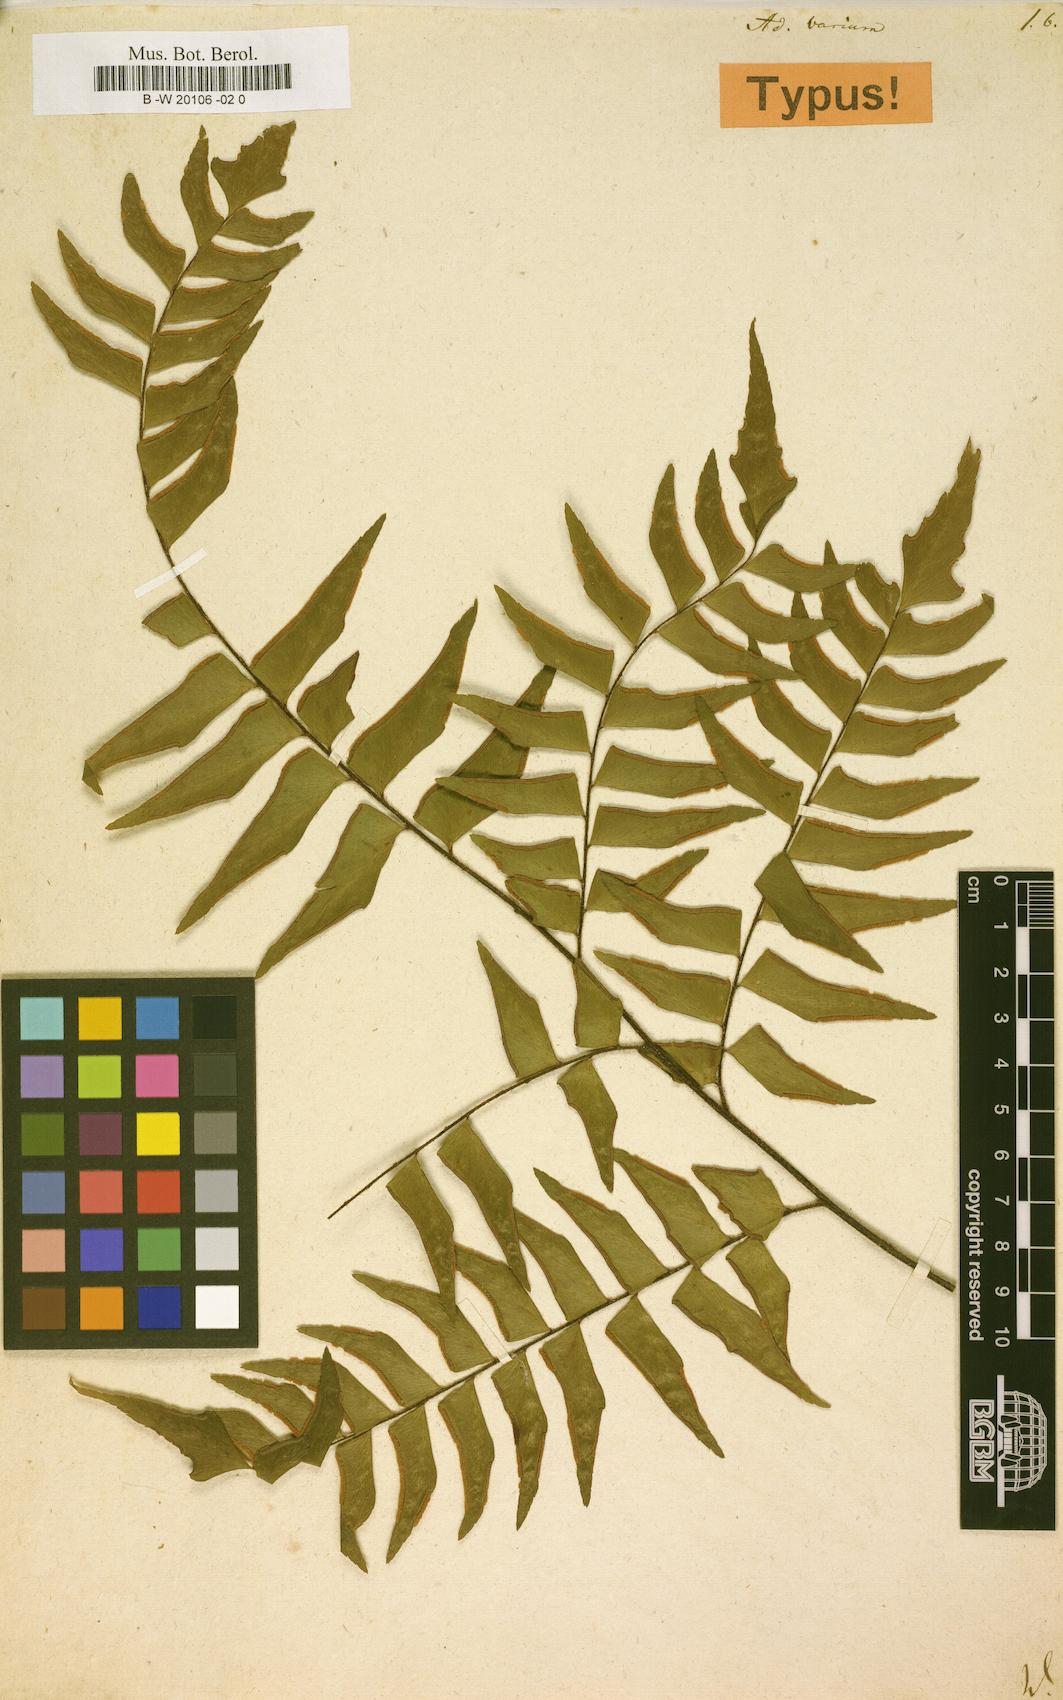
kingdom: Plantae
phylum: Tracheophyta
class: Polypodiopsida
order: Polypodiales
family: Pteridaceae
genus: Adiantum
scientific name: Adiantum lucidum
